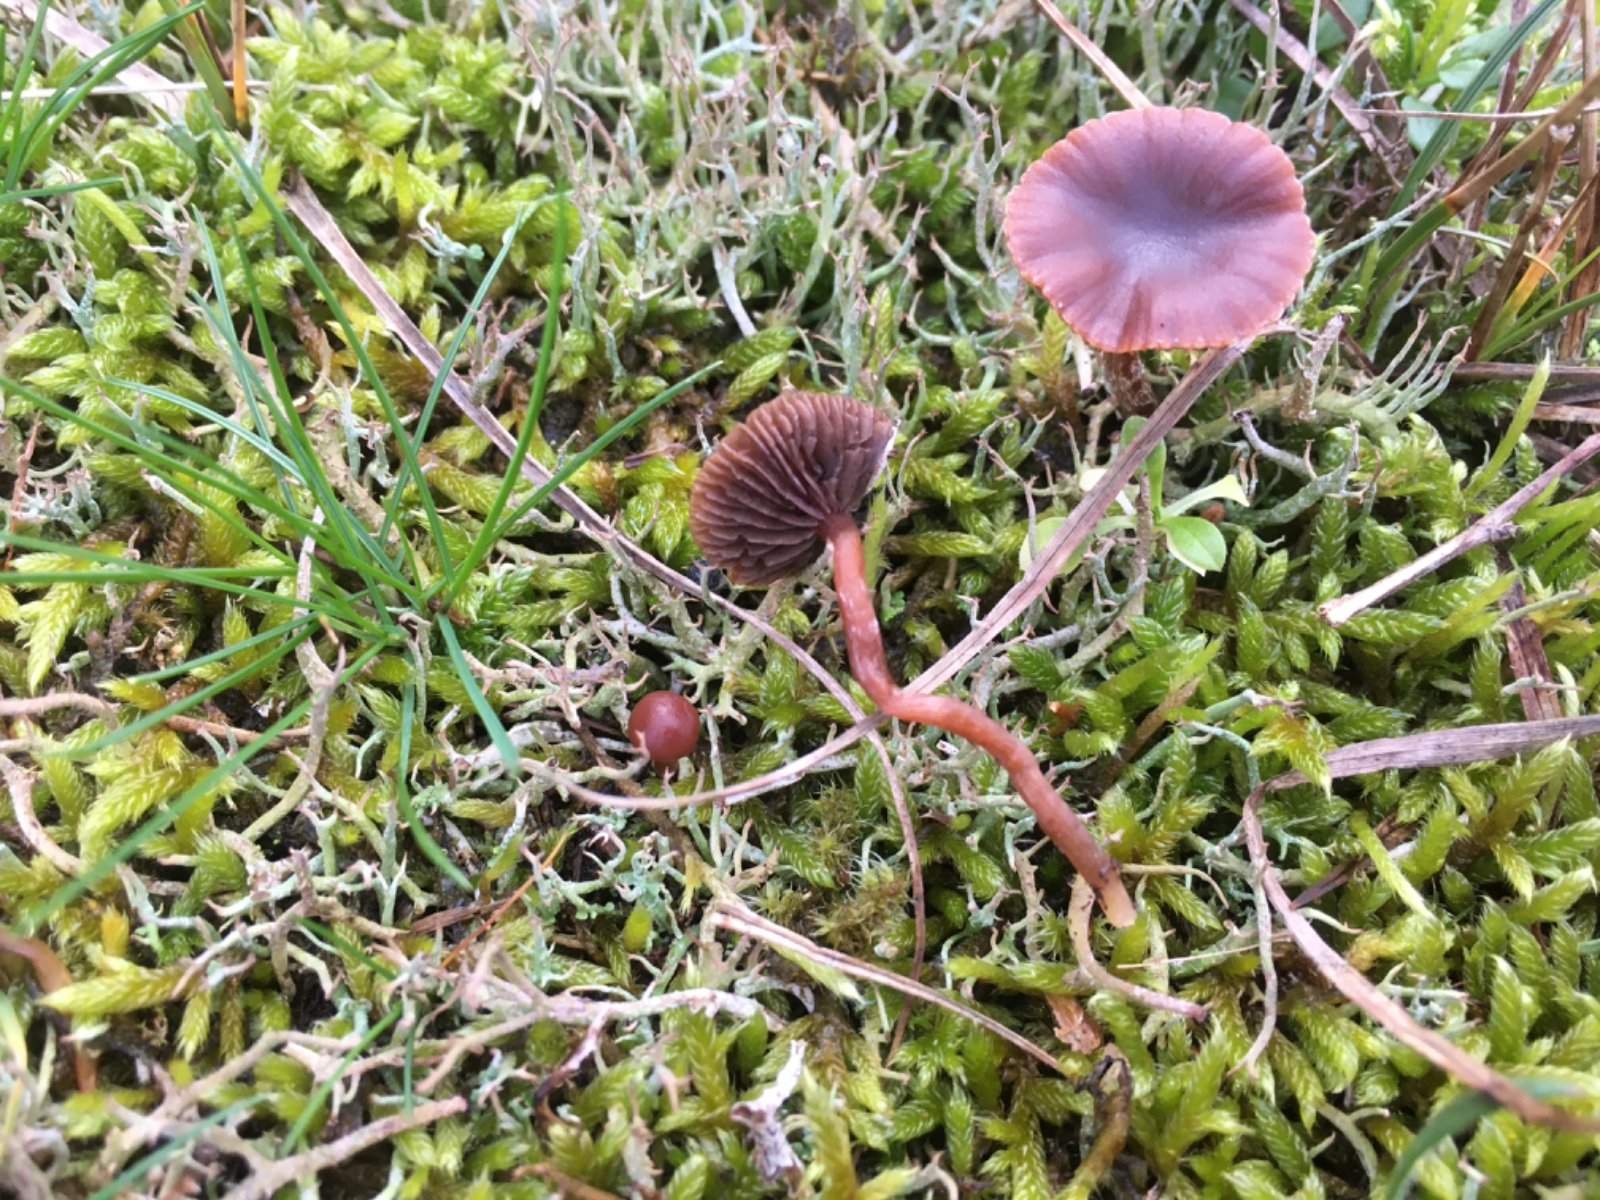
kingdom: Fungi
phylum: Basidiomycota
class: Agaricomycetes
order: Agaricales
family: Strophariaceae
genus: Deconica
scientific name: Deconica montana
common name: rødbrun stråhat
